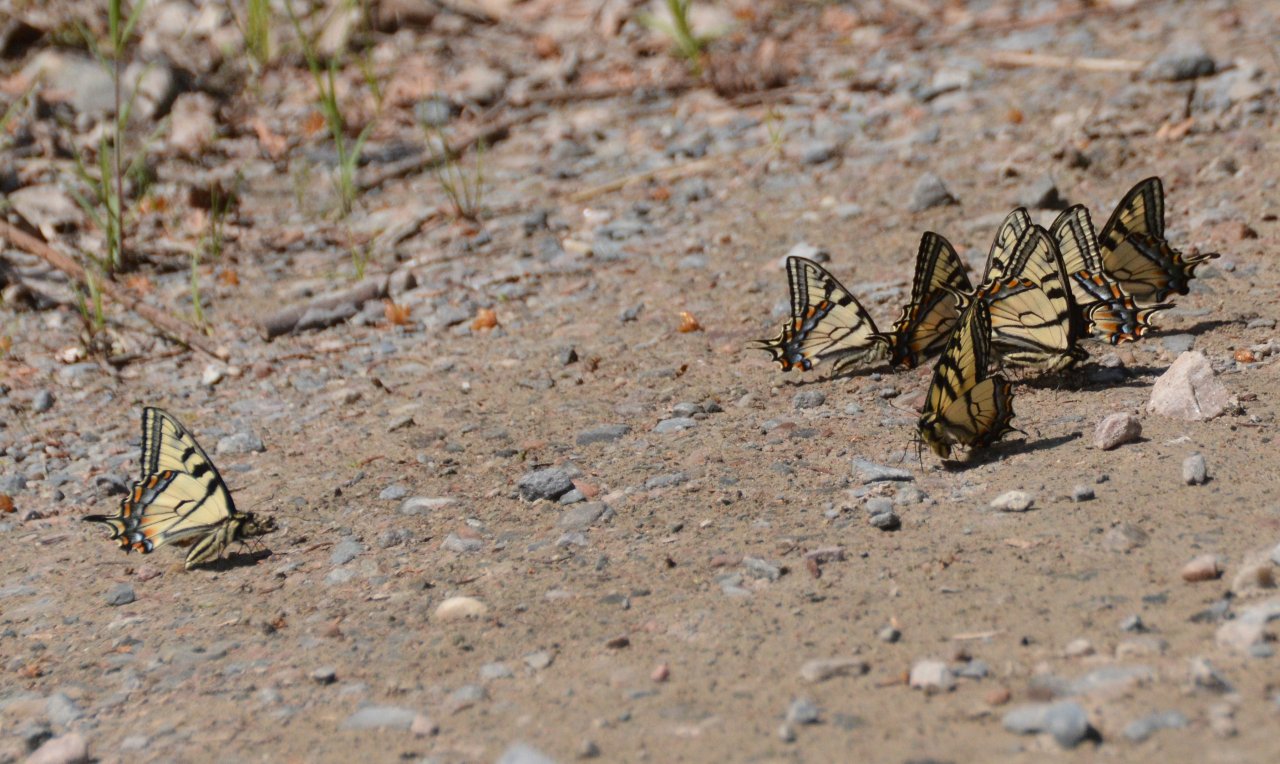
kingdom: Animalia
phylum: Arthropoda
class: Insecta
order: Lepidoptera
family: Papilionidae
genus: Pterourus
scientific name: Pterourus canadensis
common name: Canadian Tiger Swallowtail
